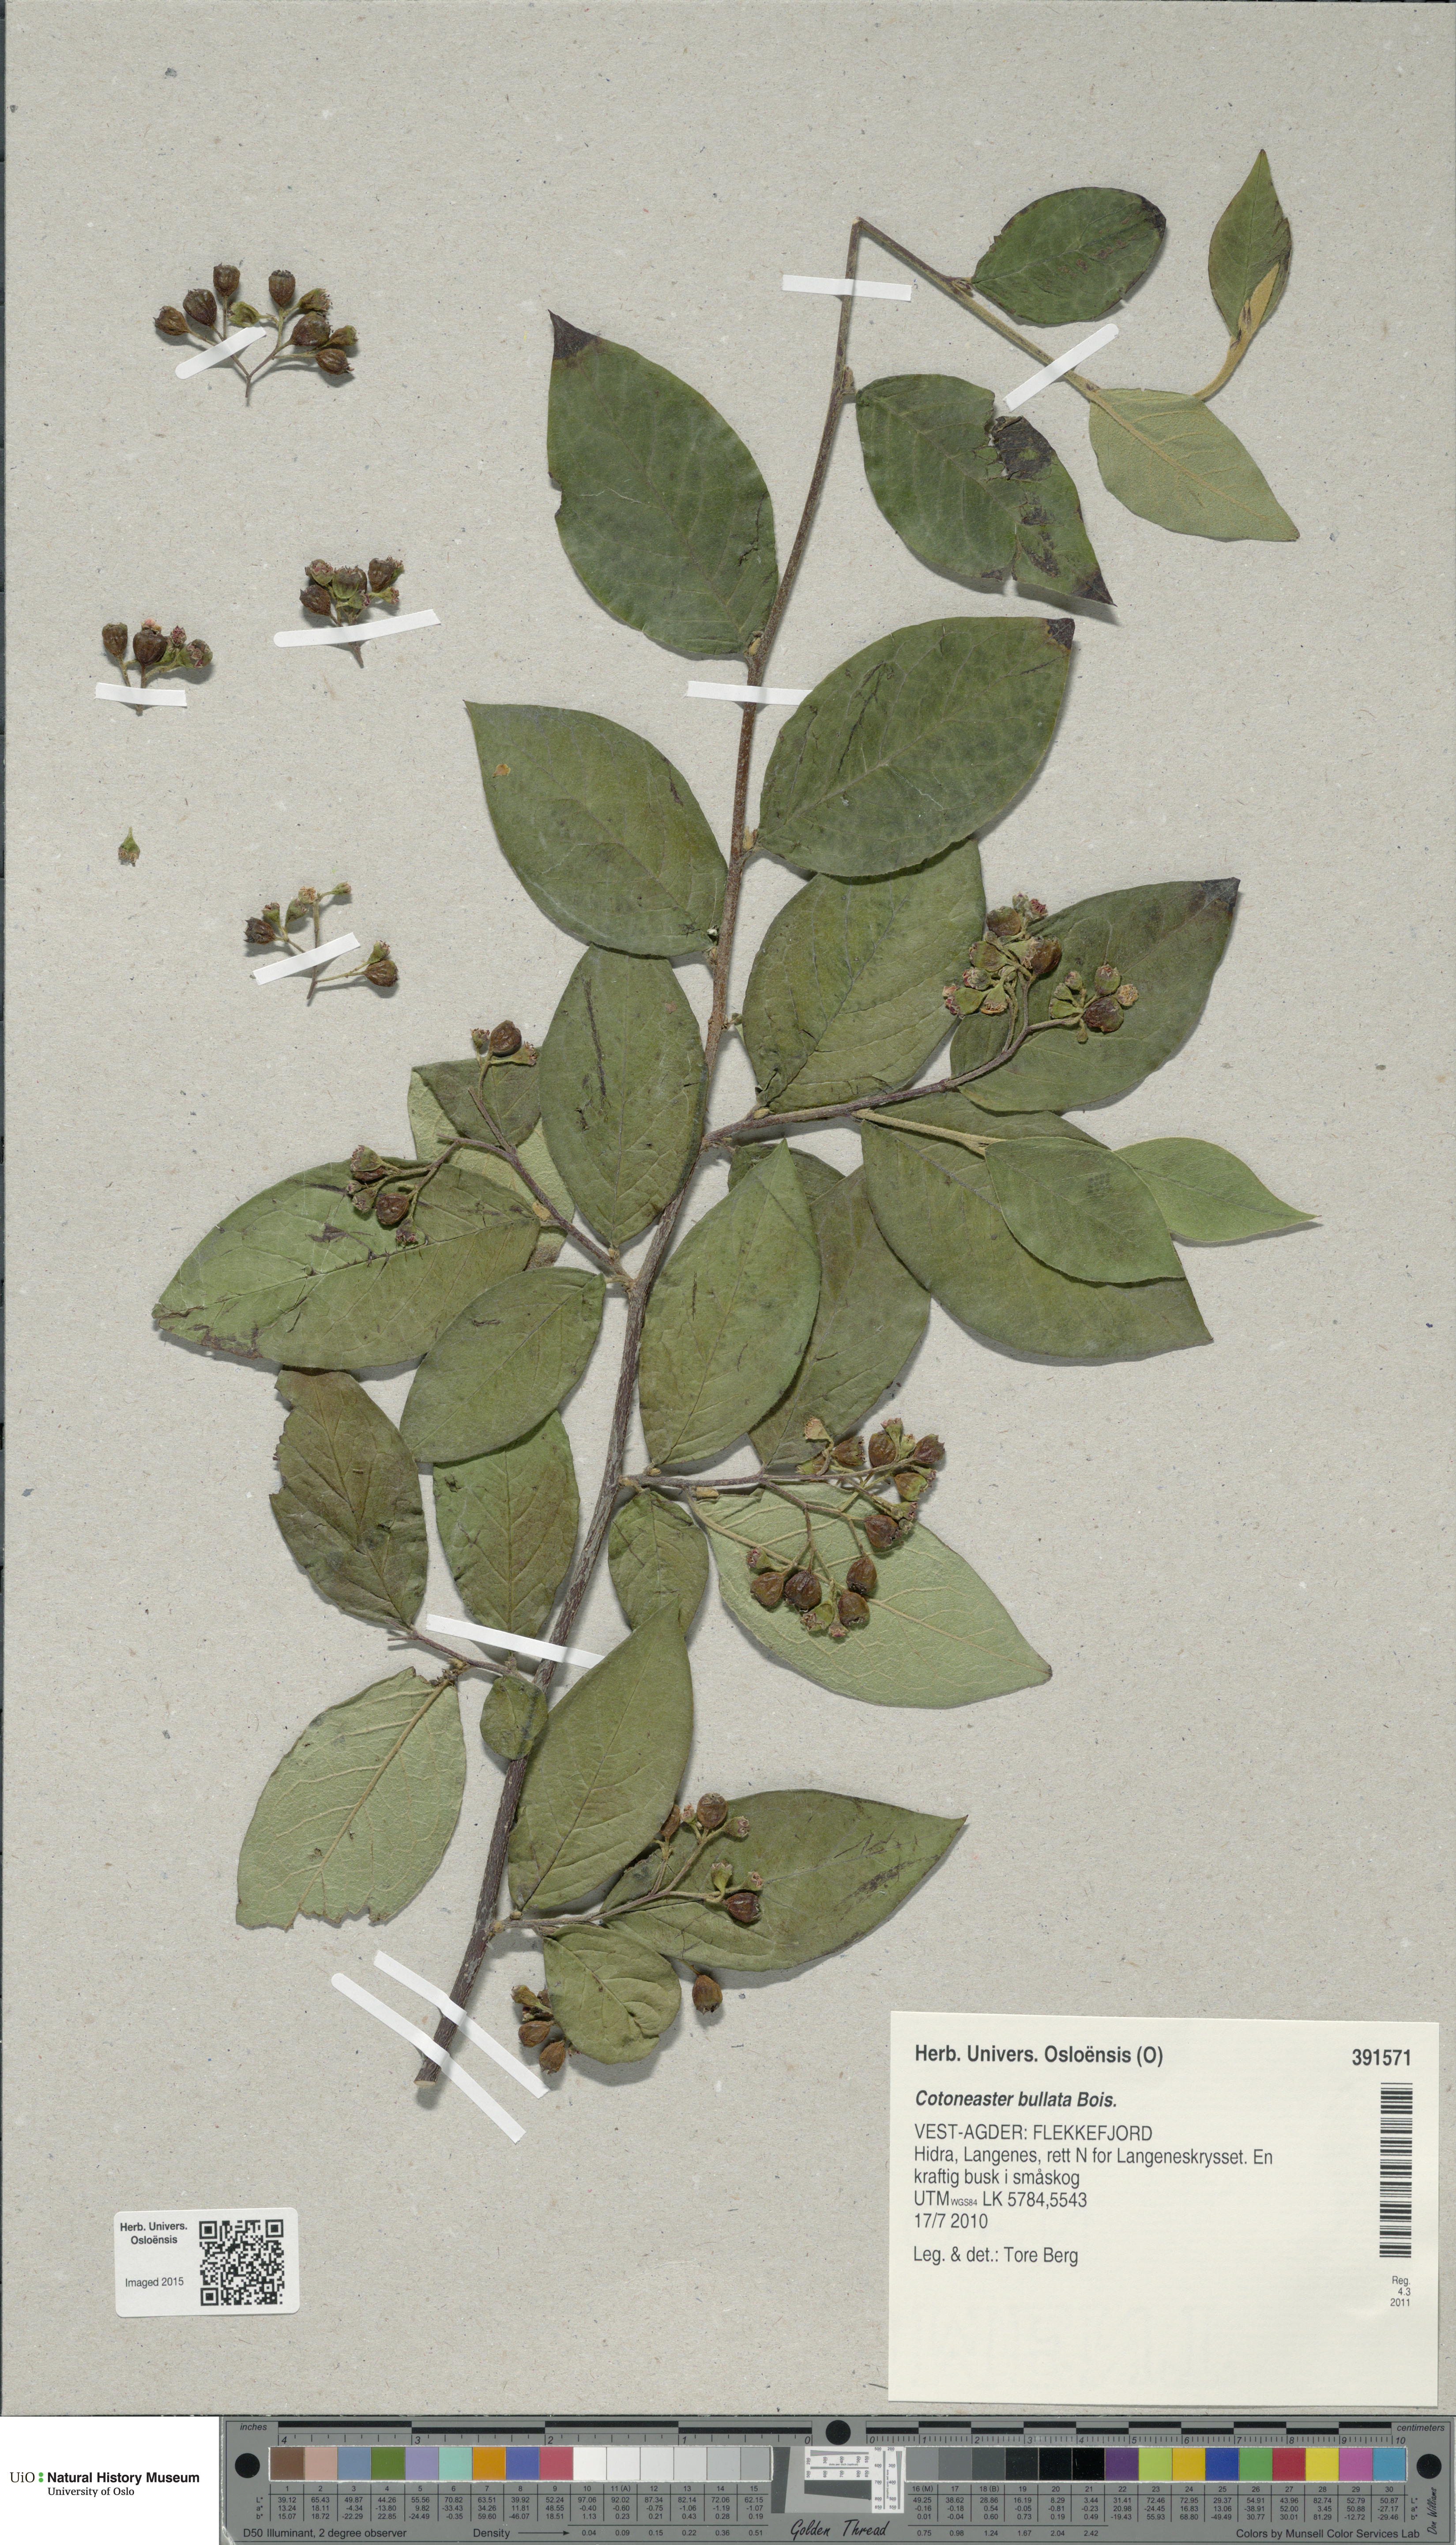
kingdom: Plantae
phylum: Tracheophyta
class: Magnoliopsida
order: Rosales
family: Rosaceae
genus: Cotoneaster
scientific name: Cotoneaster bullatus
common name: Hollyberry cotoneaster
